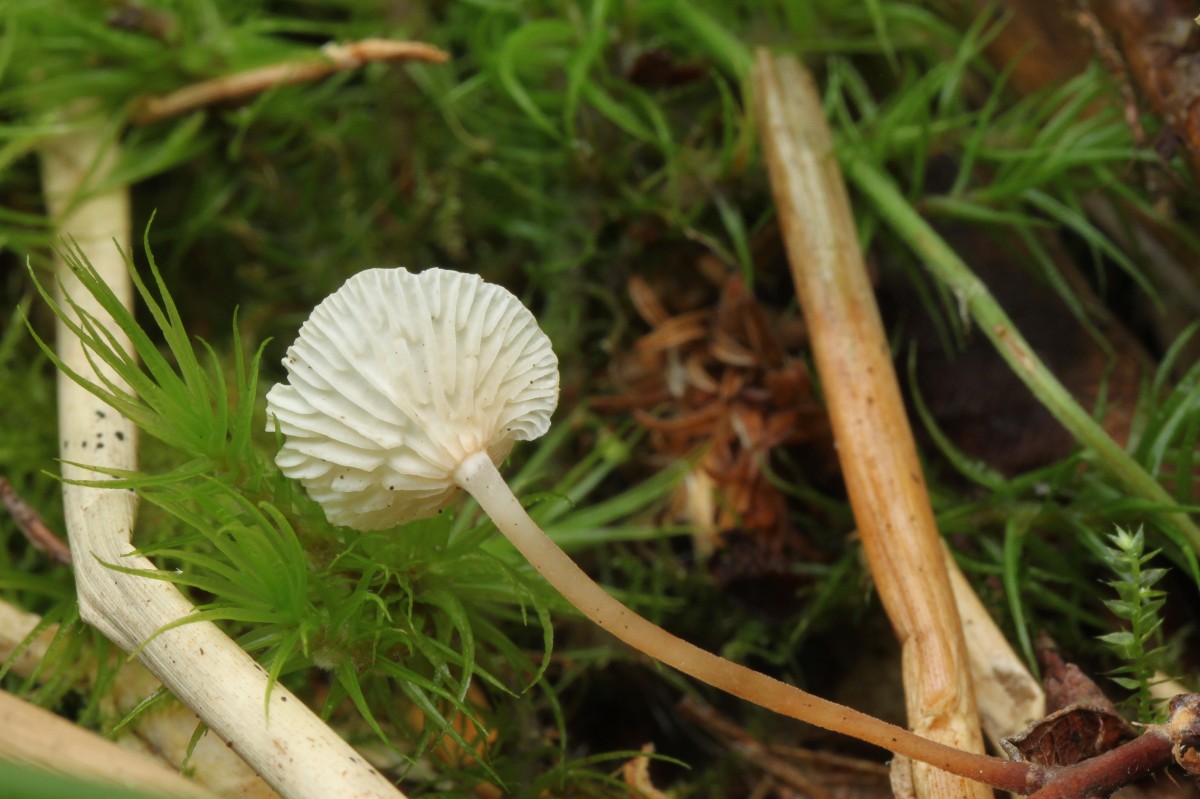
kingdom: Fungi
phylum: Basidiomycota
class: Agaricomycetes
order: Agaricales
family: Omphalotaceae
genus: Collybiopsis
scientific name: Collybiopsis vaillantii
